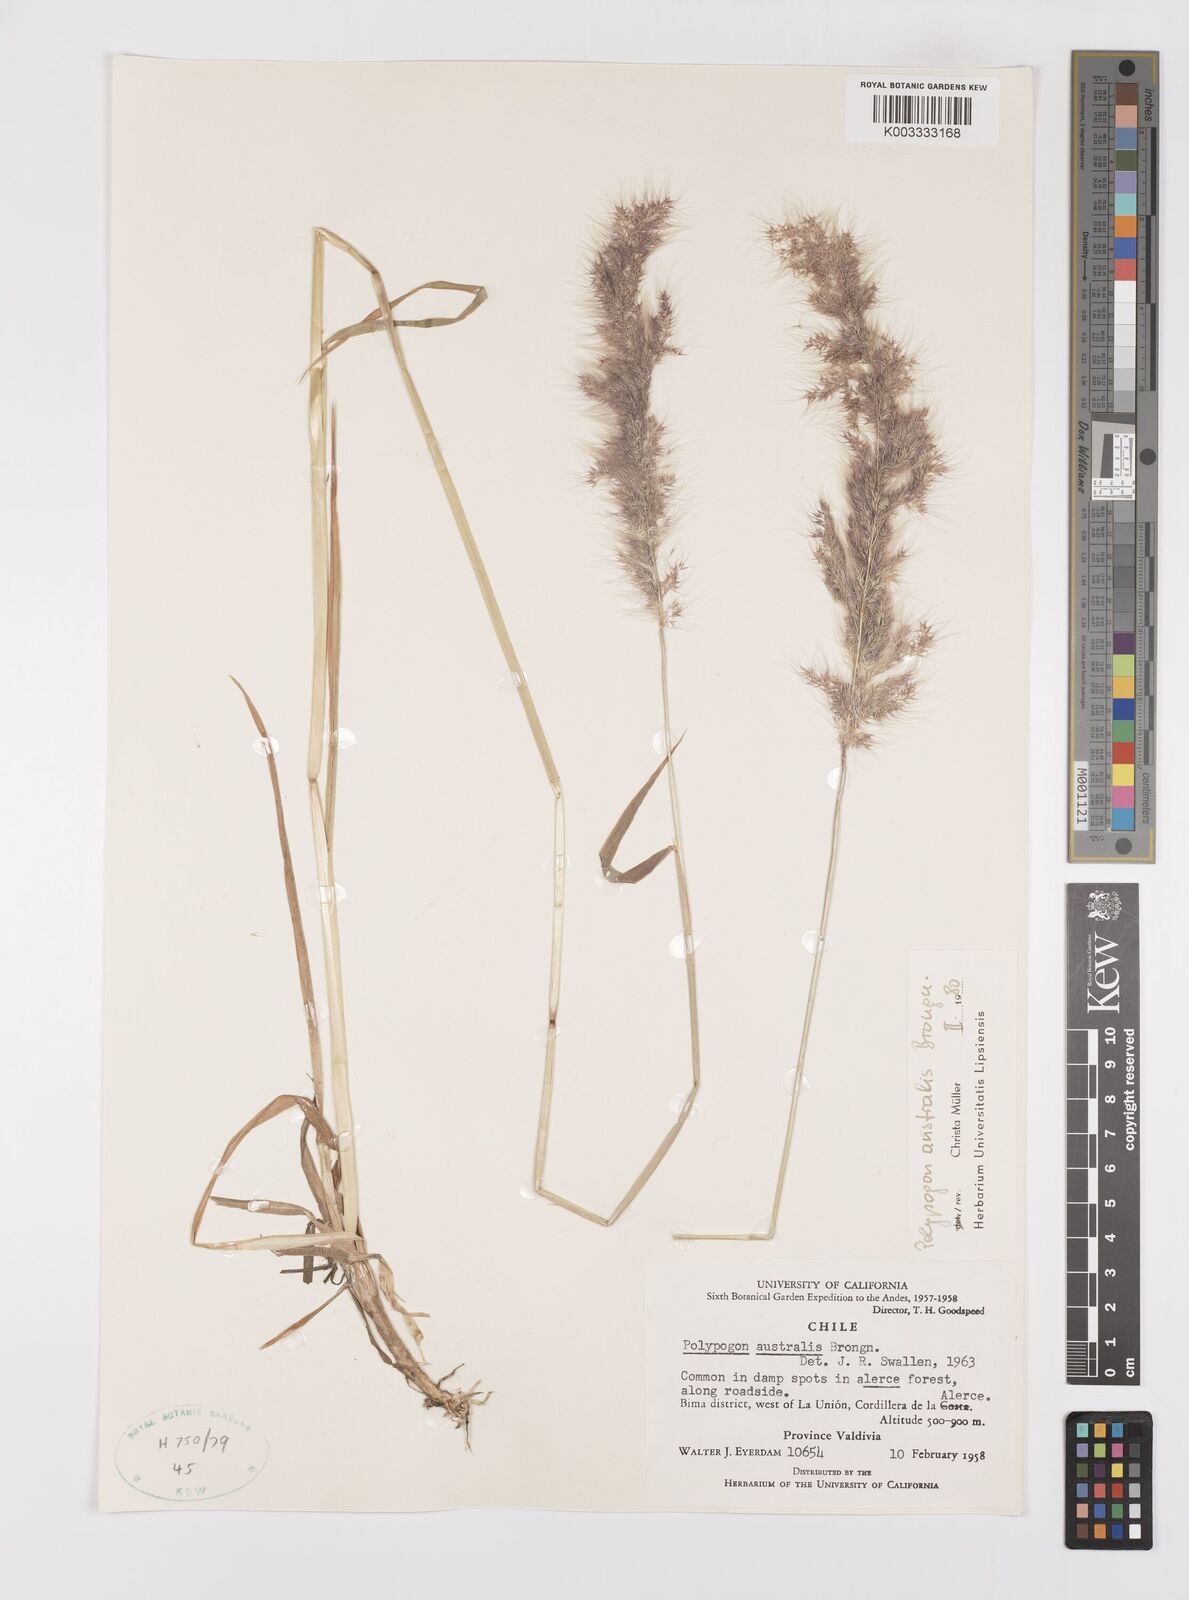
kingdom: Plantae
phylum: Tracheophyta
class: Liliopsida
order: Poales
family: Poaceae
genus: Polypogon
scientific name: Polypogon australis
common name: Chilean rabbitsfoot grass
